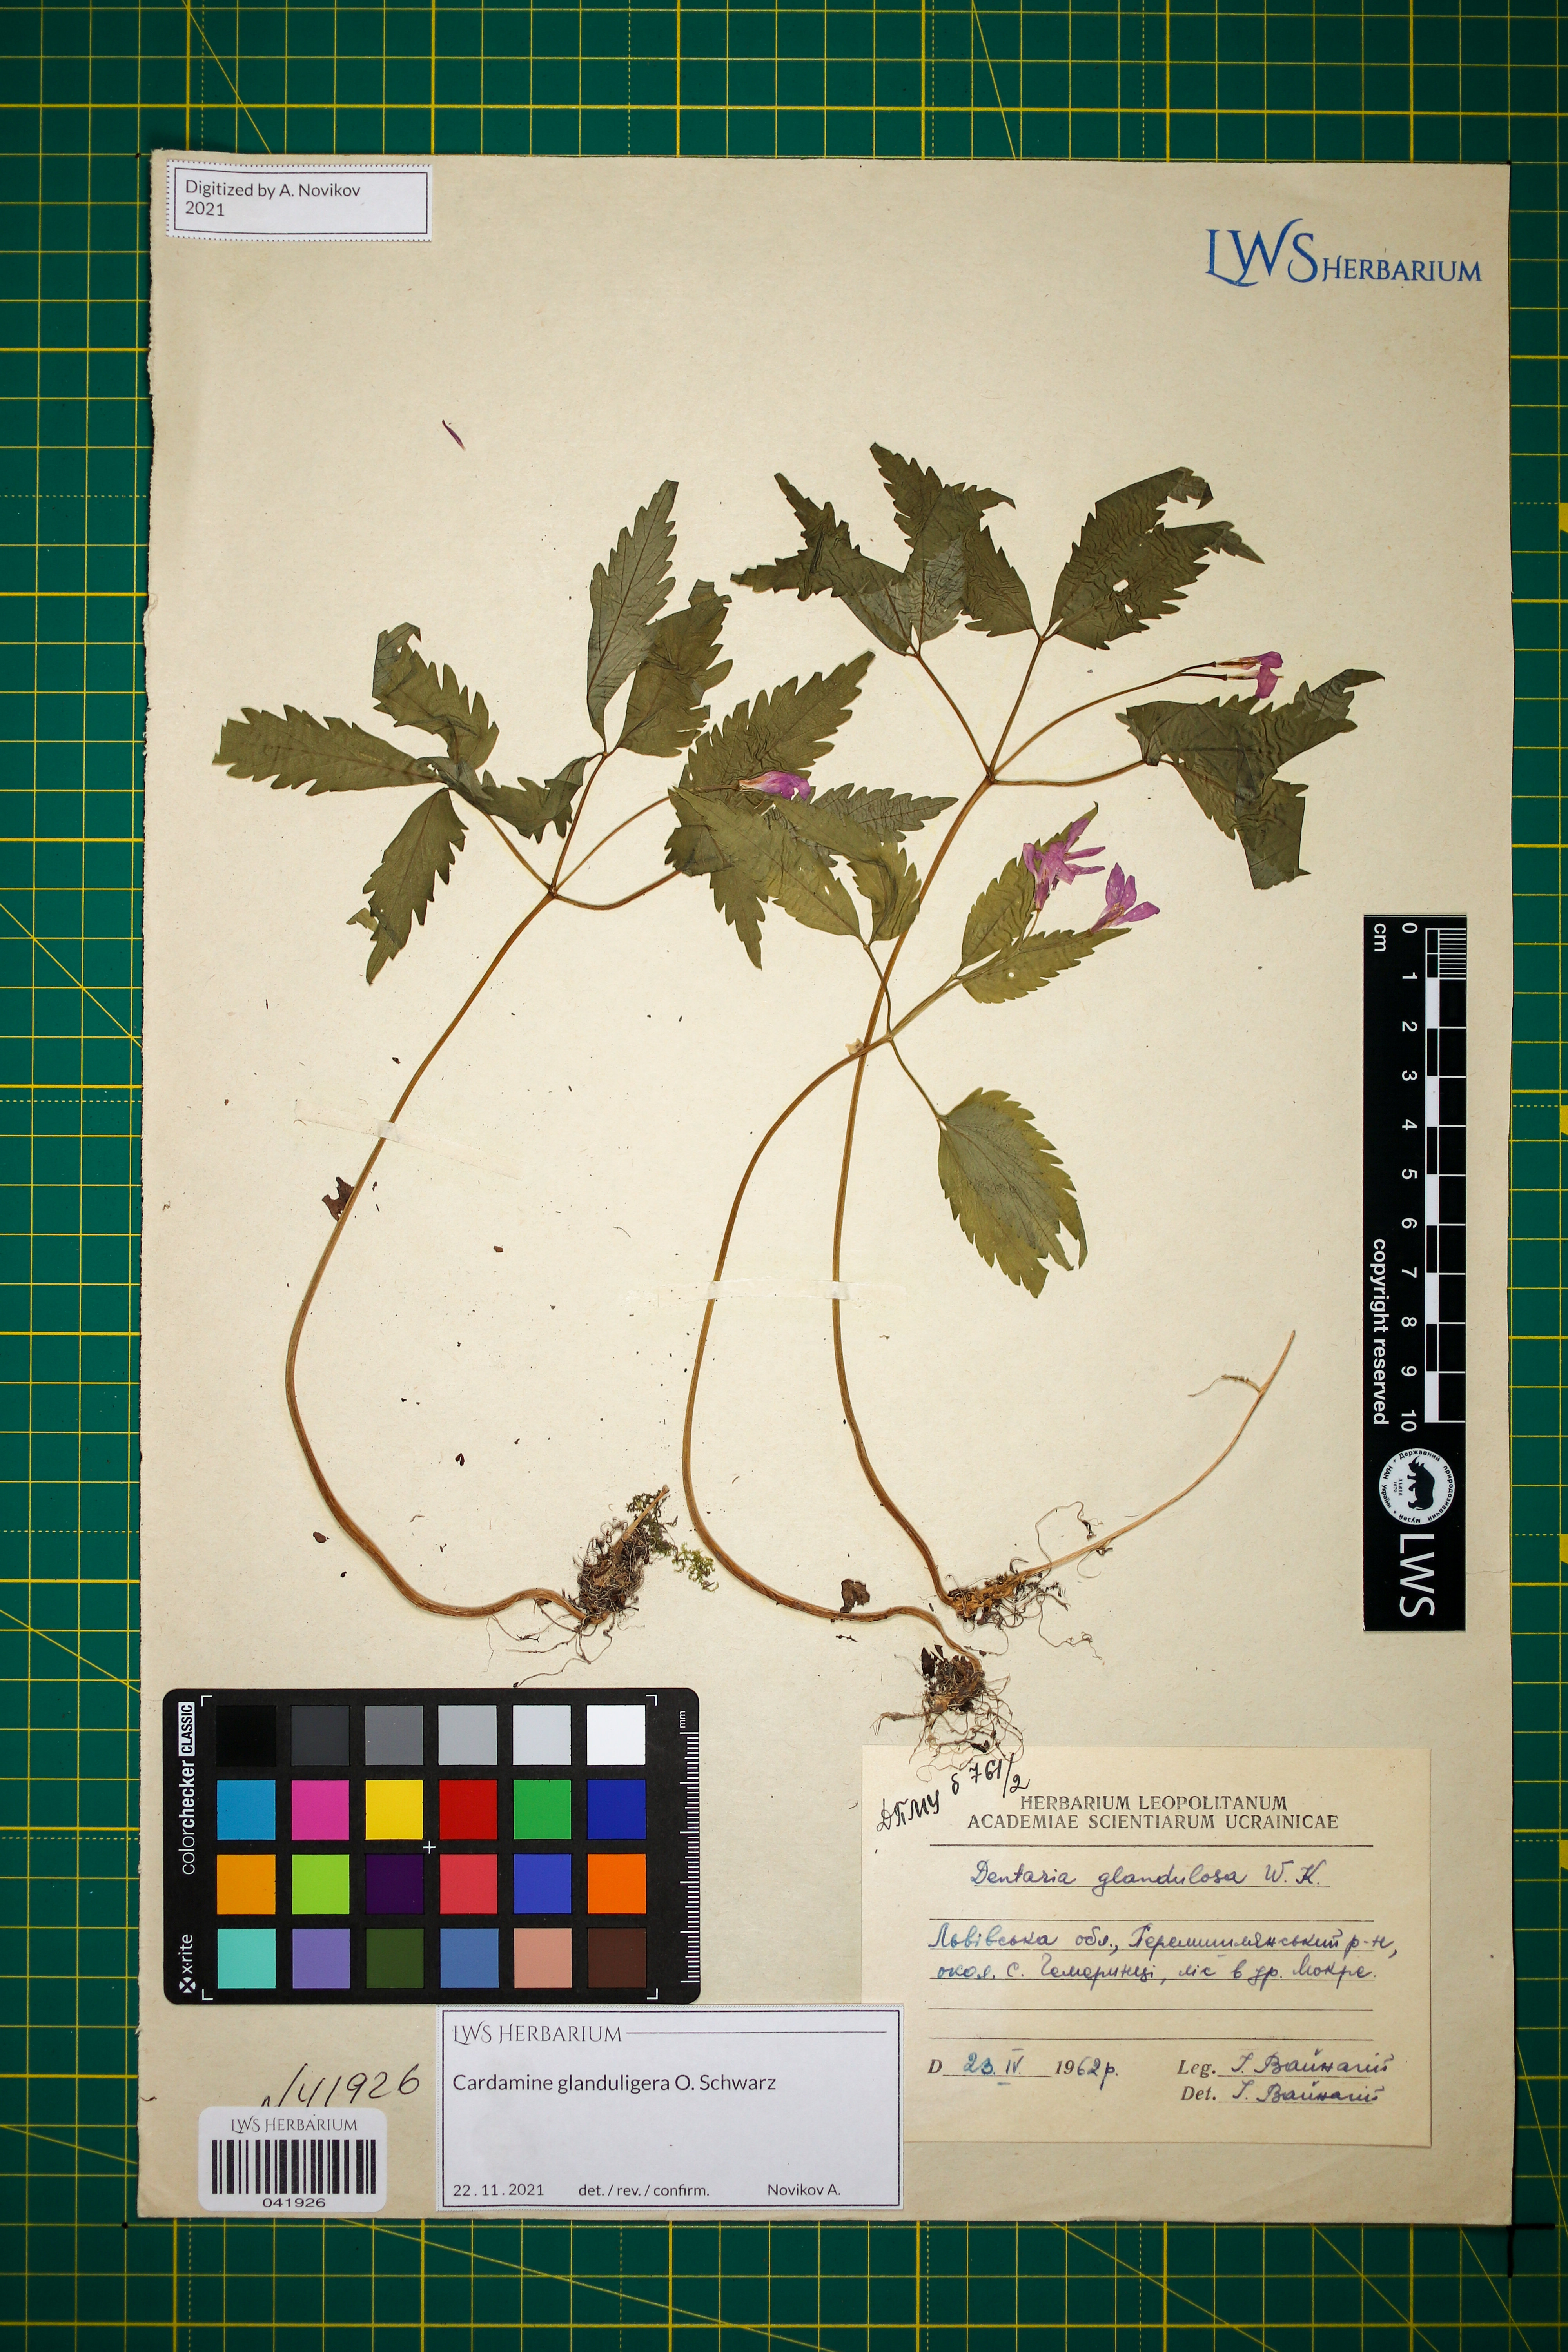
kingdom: Plantae
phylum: Tracheophyta
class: Magnoliopsida
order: Brassicales
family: Brassicaceae
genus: Cardamine
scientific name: Cardamine glanduligera
